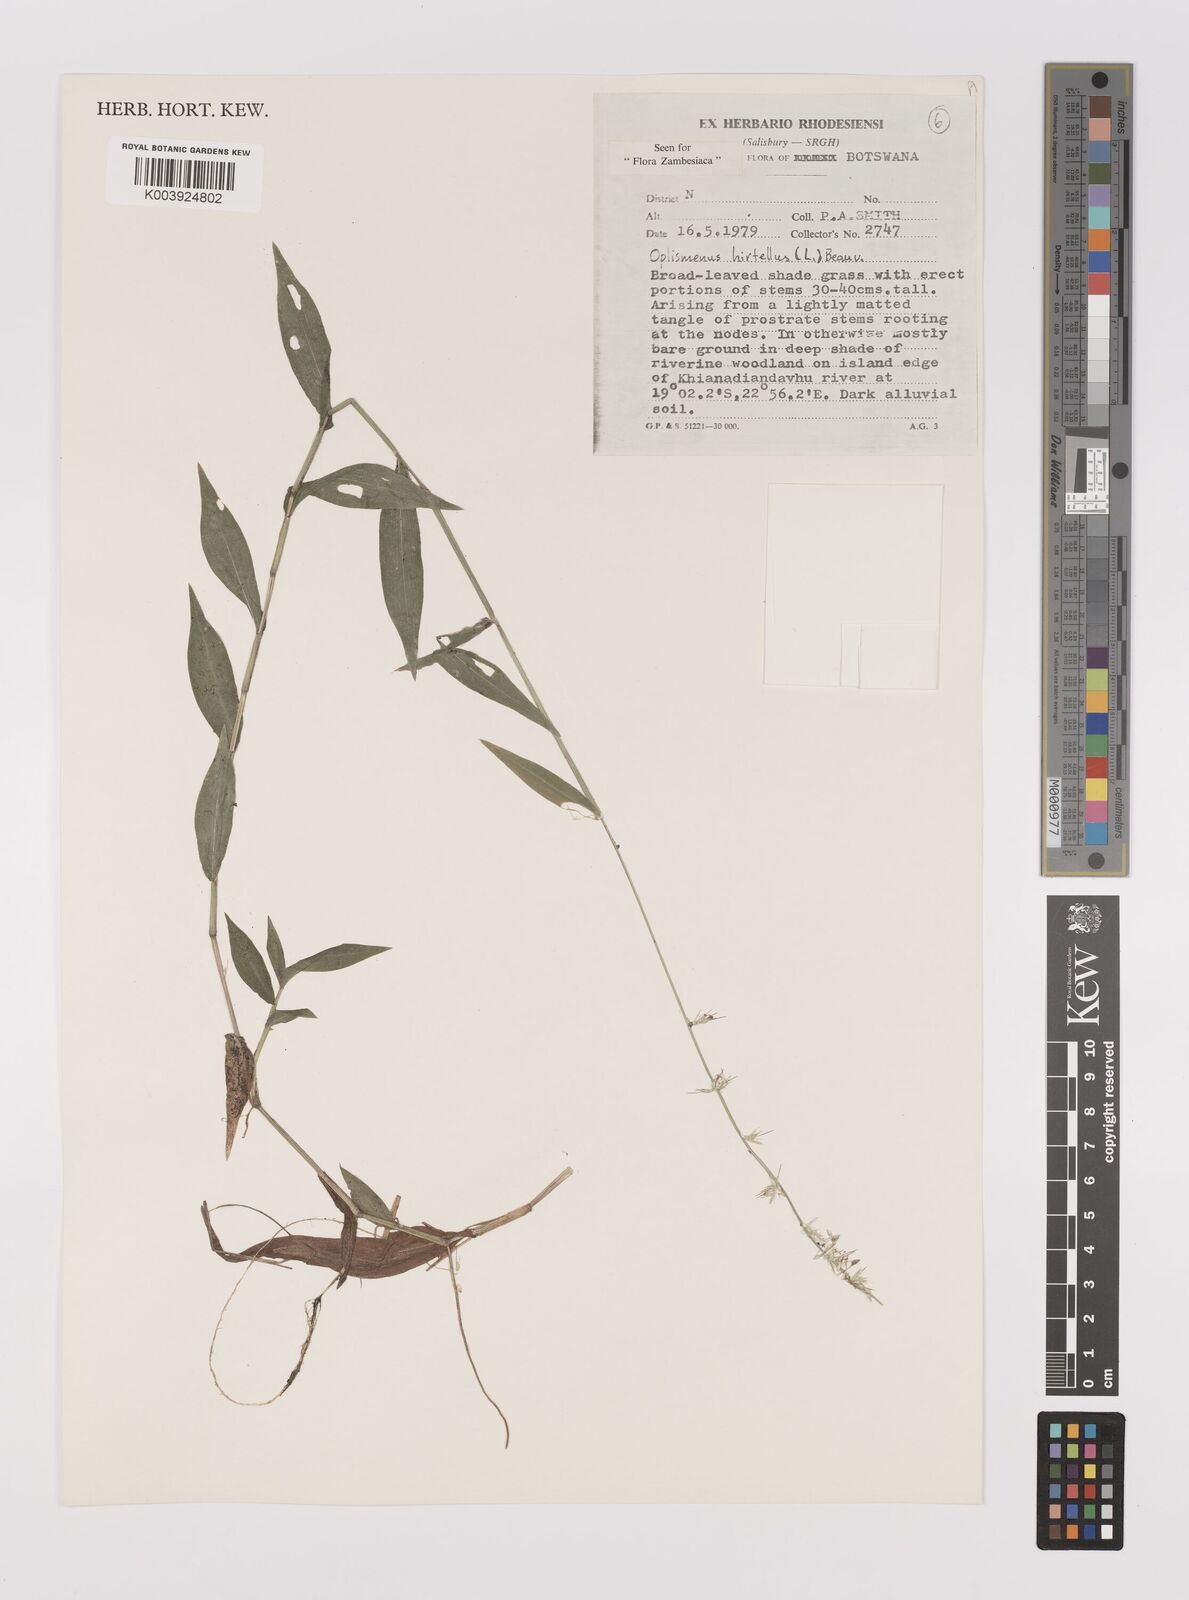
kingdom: Plantae
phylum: Tracheophyta
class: Liliopsida
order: Poales
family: Poaceae
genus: Oplismenus
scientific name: Oplismenus hirtellus
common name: Basketgrass
